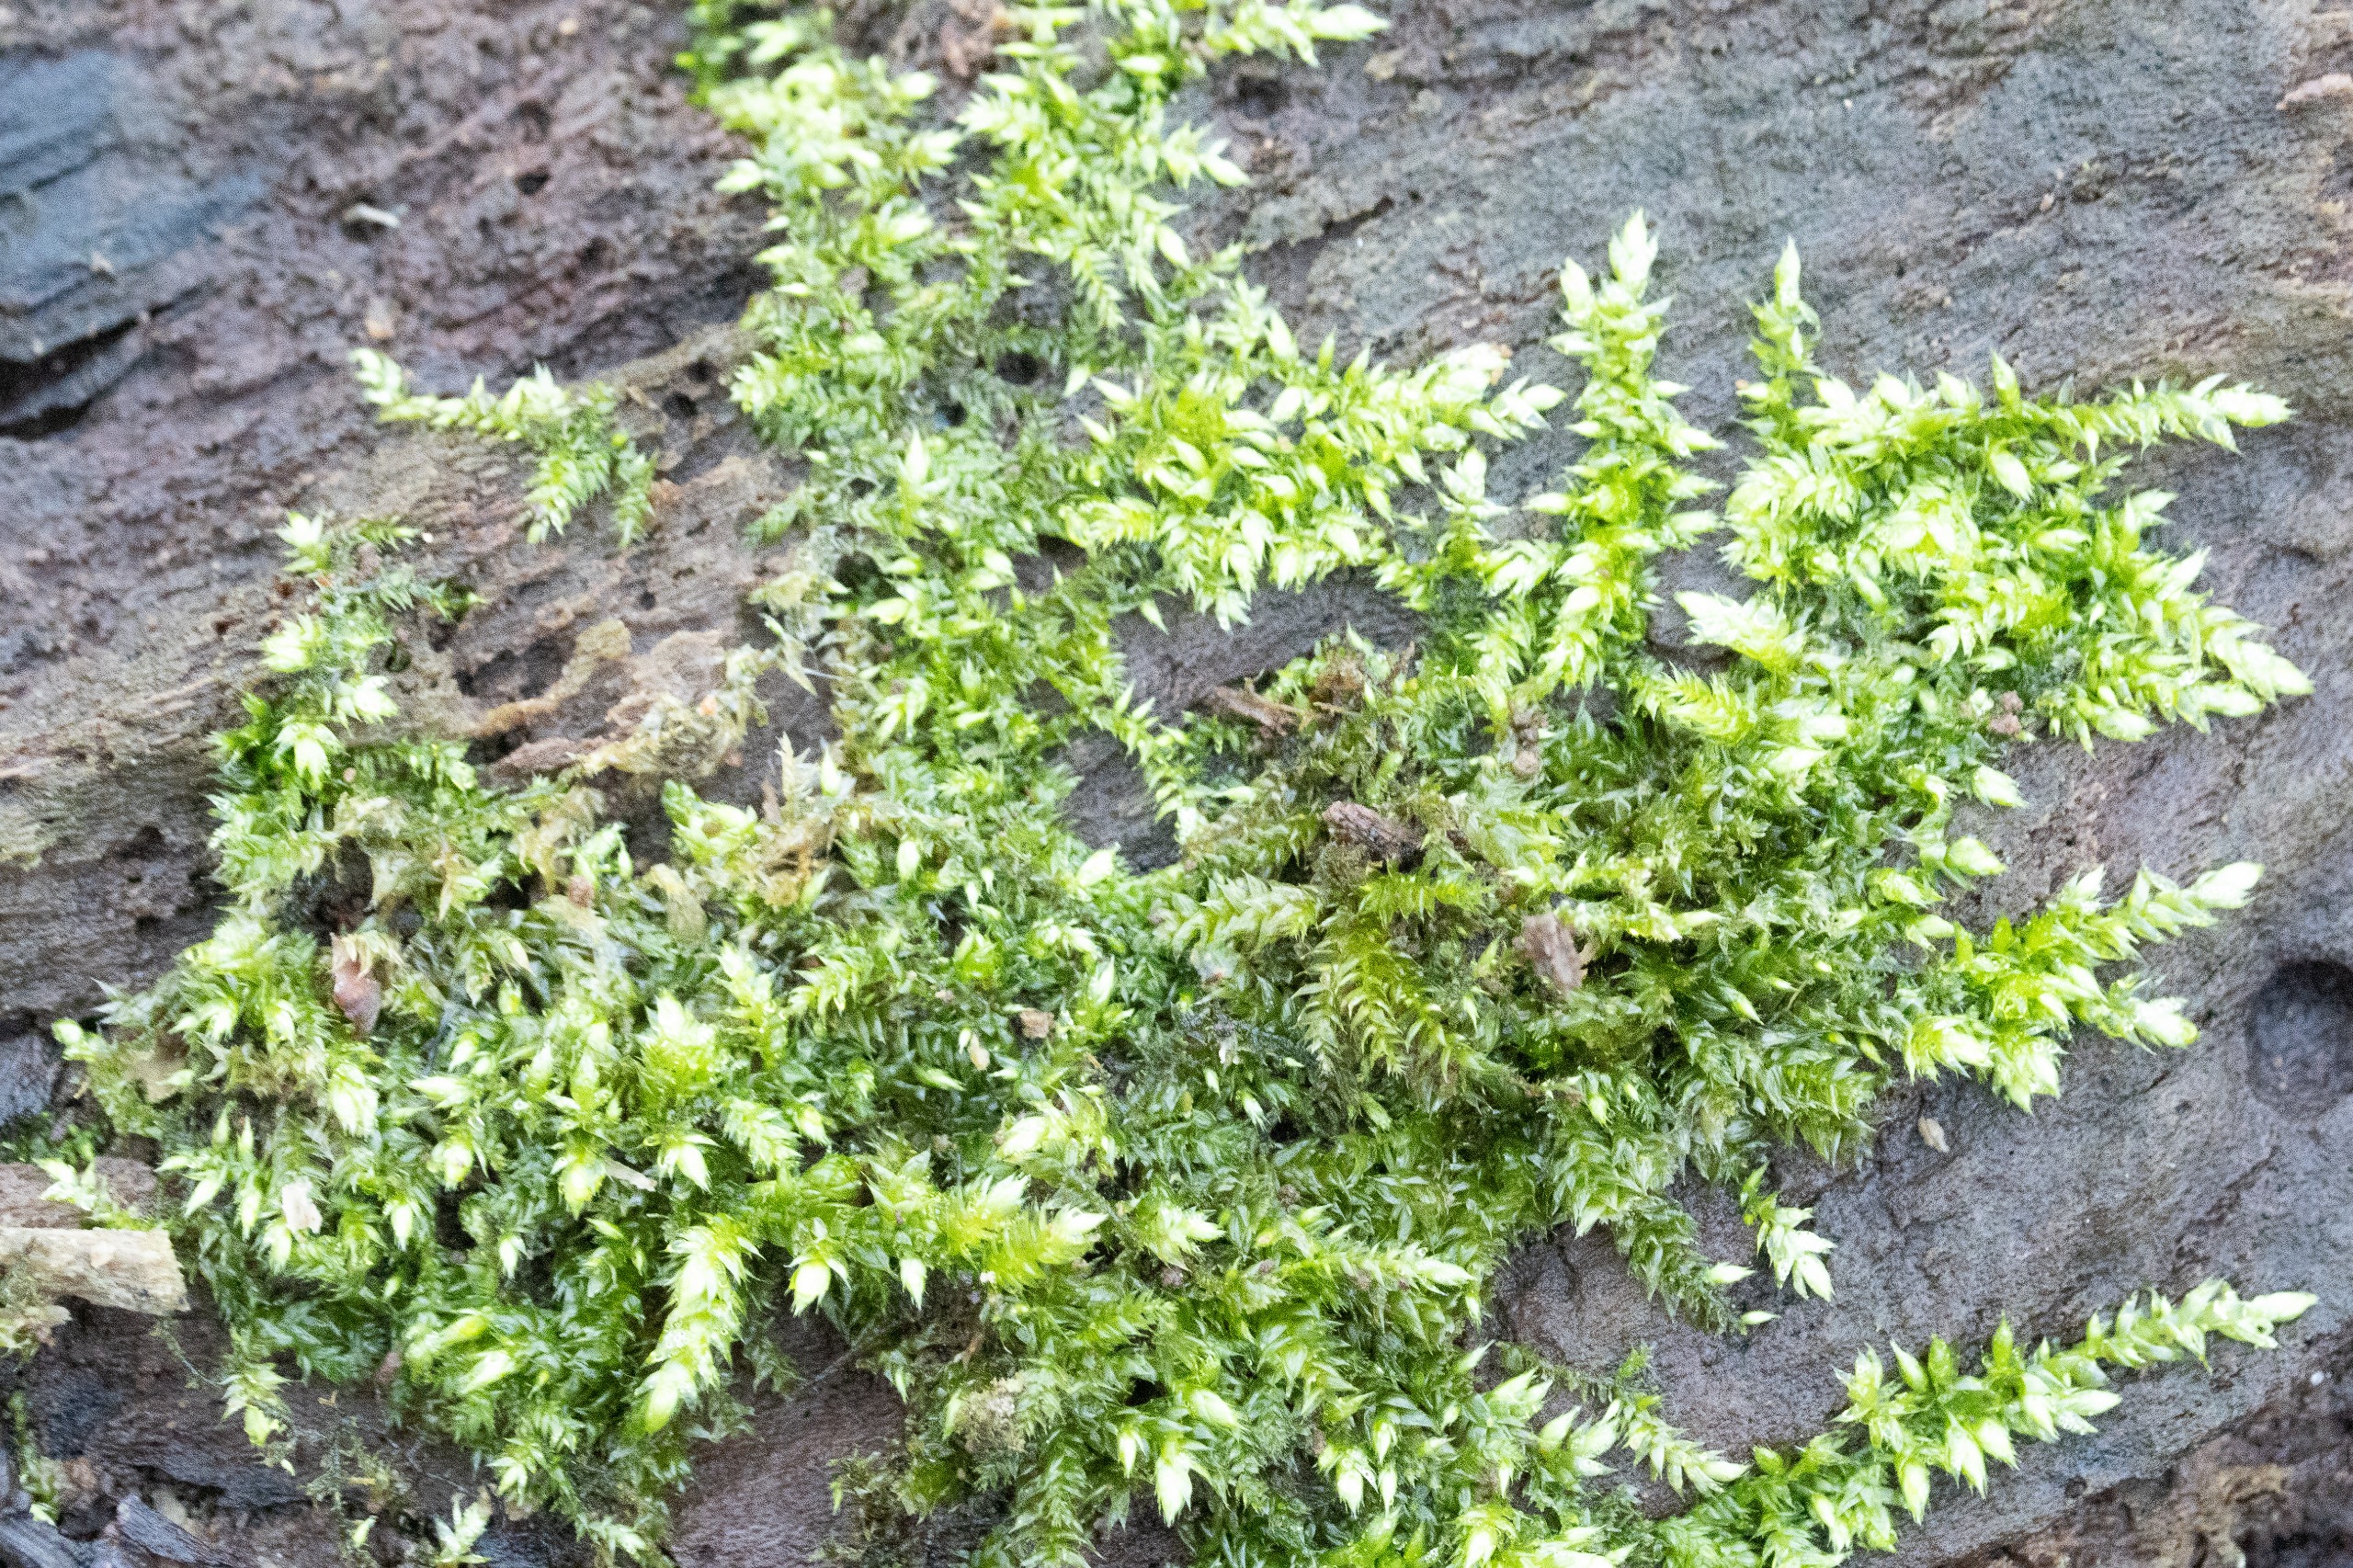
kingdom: Plantae
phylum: Bryophyta
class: Bryopsida
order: Hypnales
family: Brachytheciaceae
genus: Brachythecium
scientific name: Brachythecium rutabulum
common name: Almindelig kortkapsel
